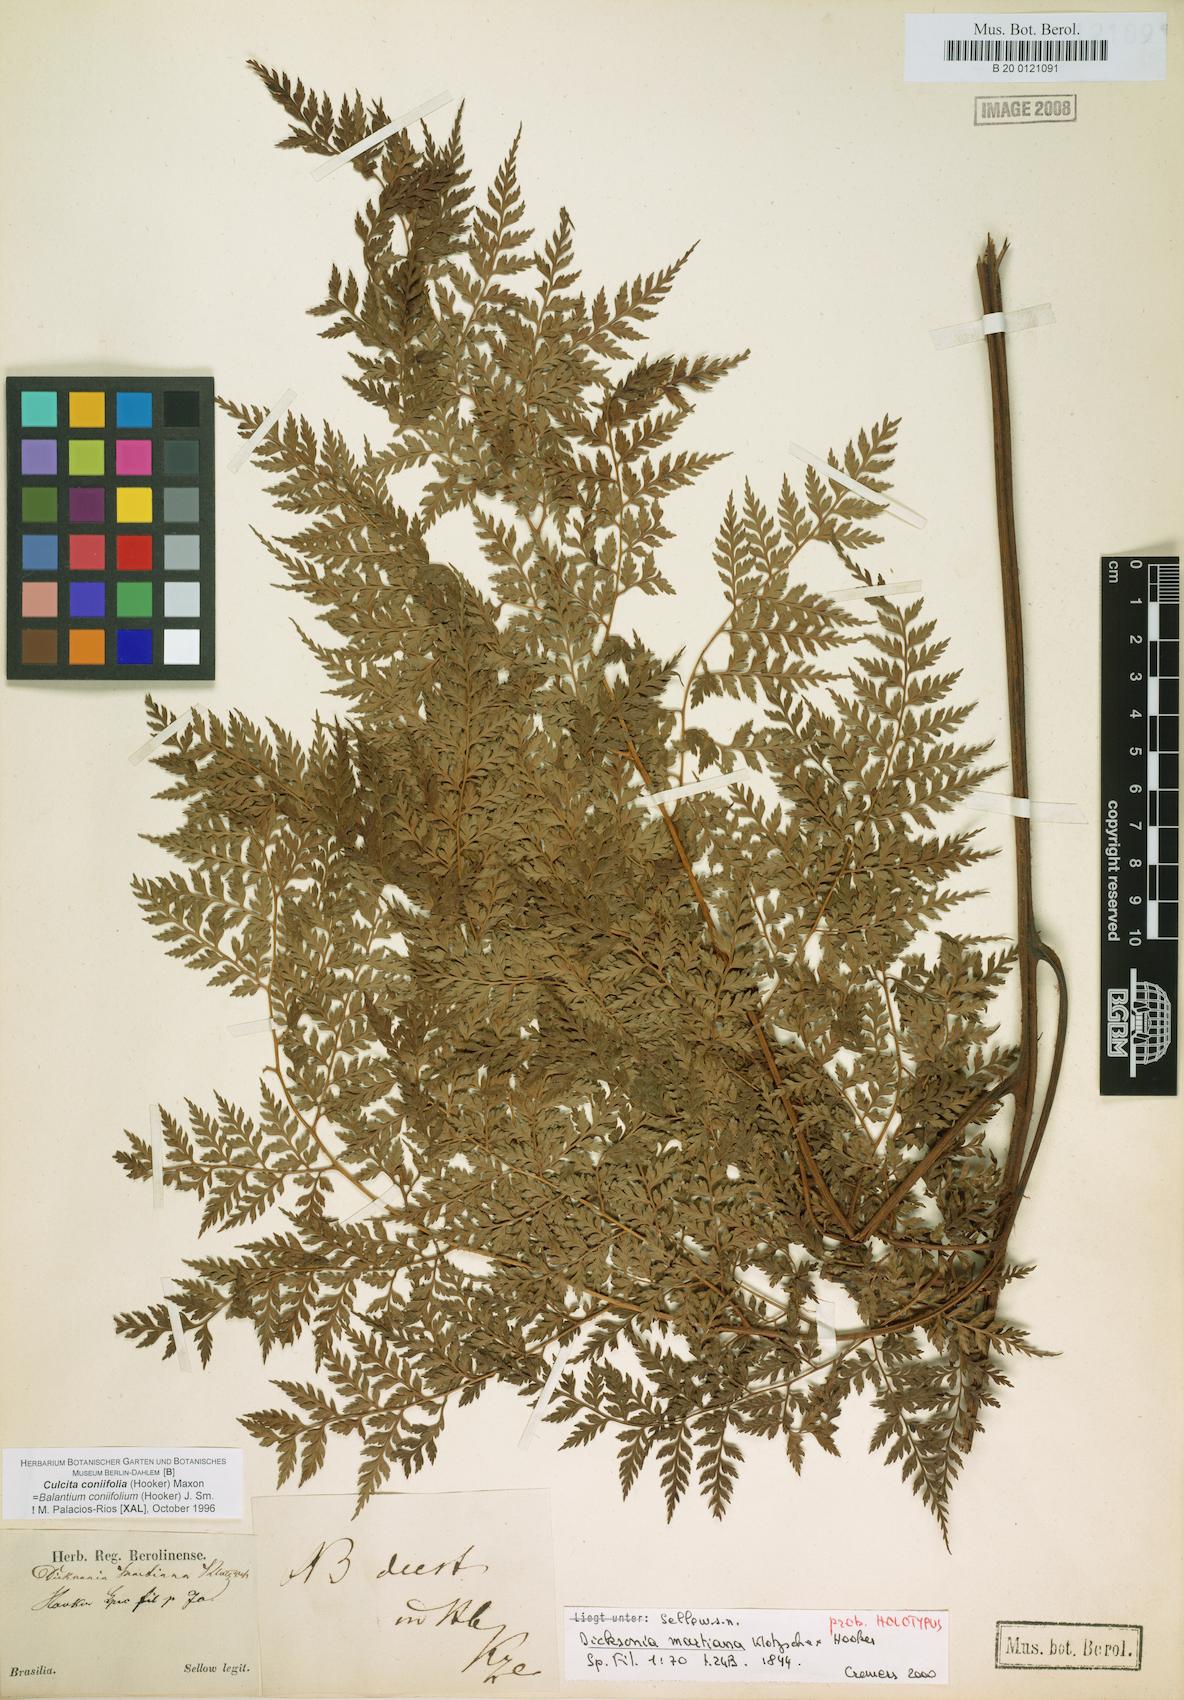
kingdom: Plantae
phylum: Tracheophyta
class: Polypodiopsida
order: Cyatheales
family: Culcitaceae
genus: Culcita
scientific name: Culcita coniifolia
